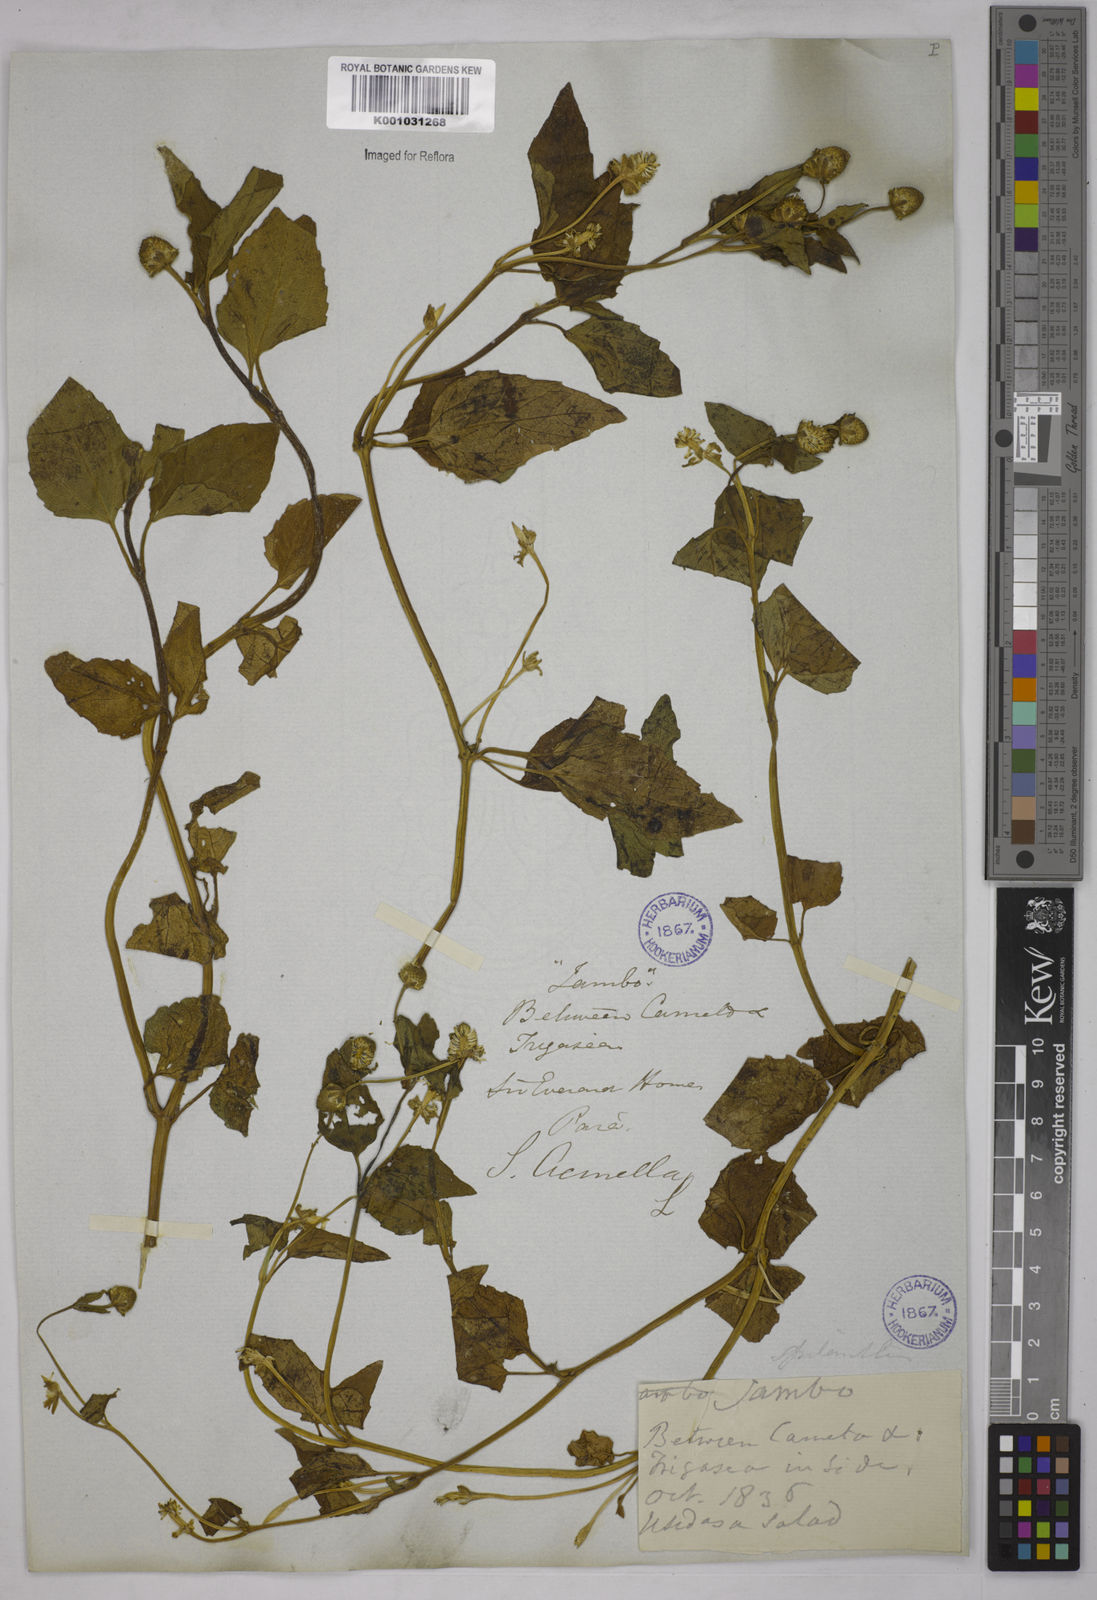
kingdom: Plantae
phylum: Tracheophyta
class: Magnoliopsida
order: Asterales
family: Asteraceae
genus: Acmella
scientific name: Acmella ciliata
